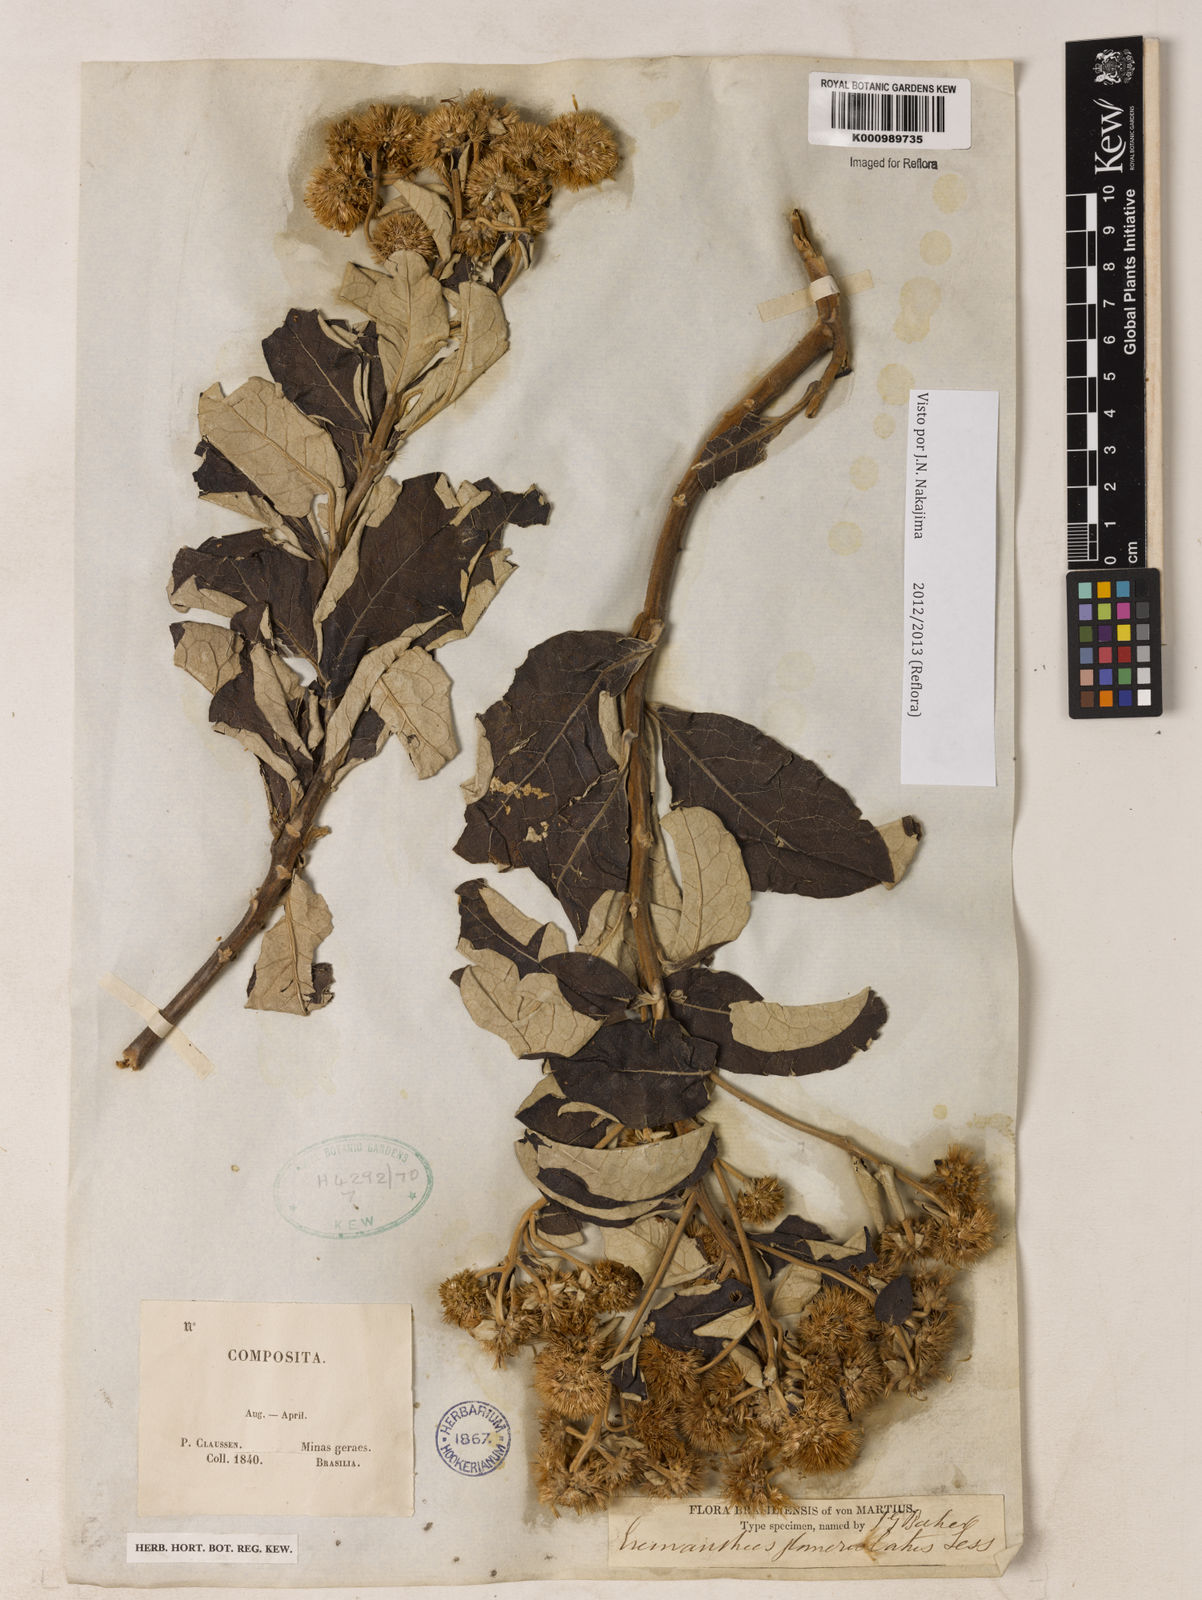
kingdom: Plantae
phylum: Tracheophyta
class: Magnoliopsida
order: Asterales
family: Asteraceae
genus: Eremanthus
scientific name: Eremanthus glomerulatus
